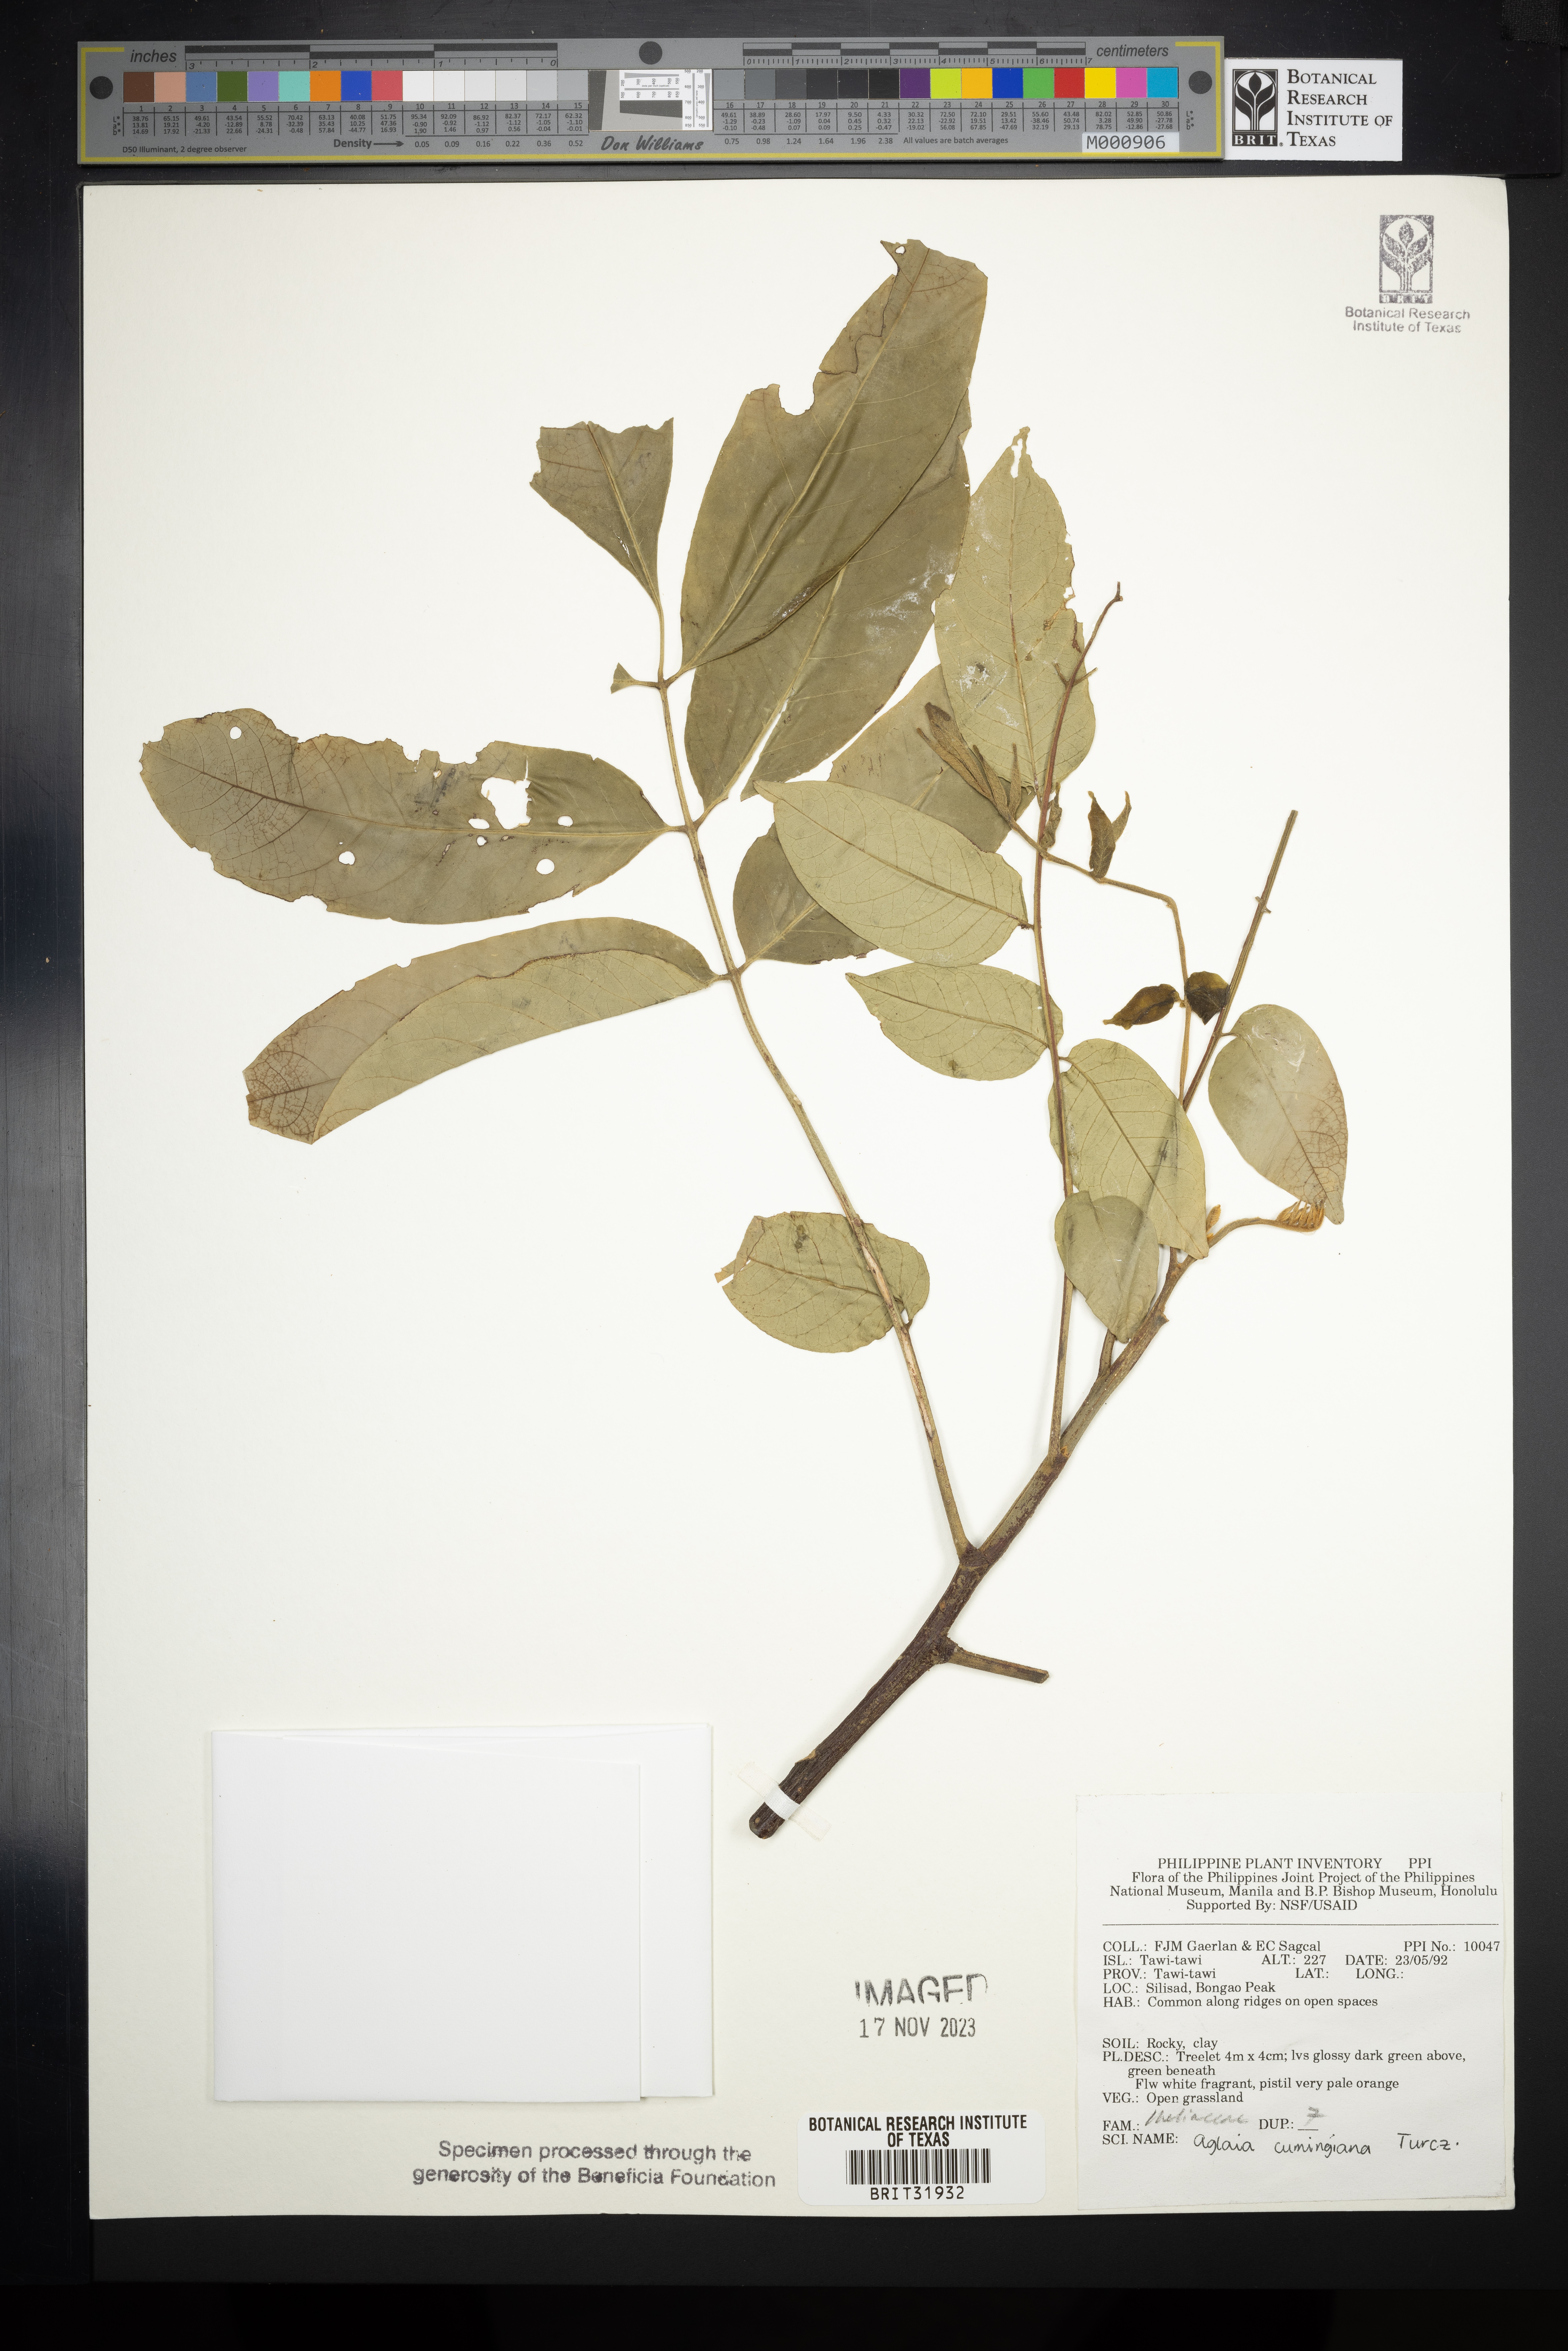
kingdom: Plantae
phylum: Tracheophyta
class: Magnoliopsida
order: Sapindales
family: Meliaceae
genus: Aglaia
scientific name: Aglaia cumingiana
